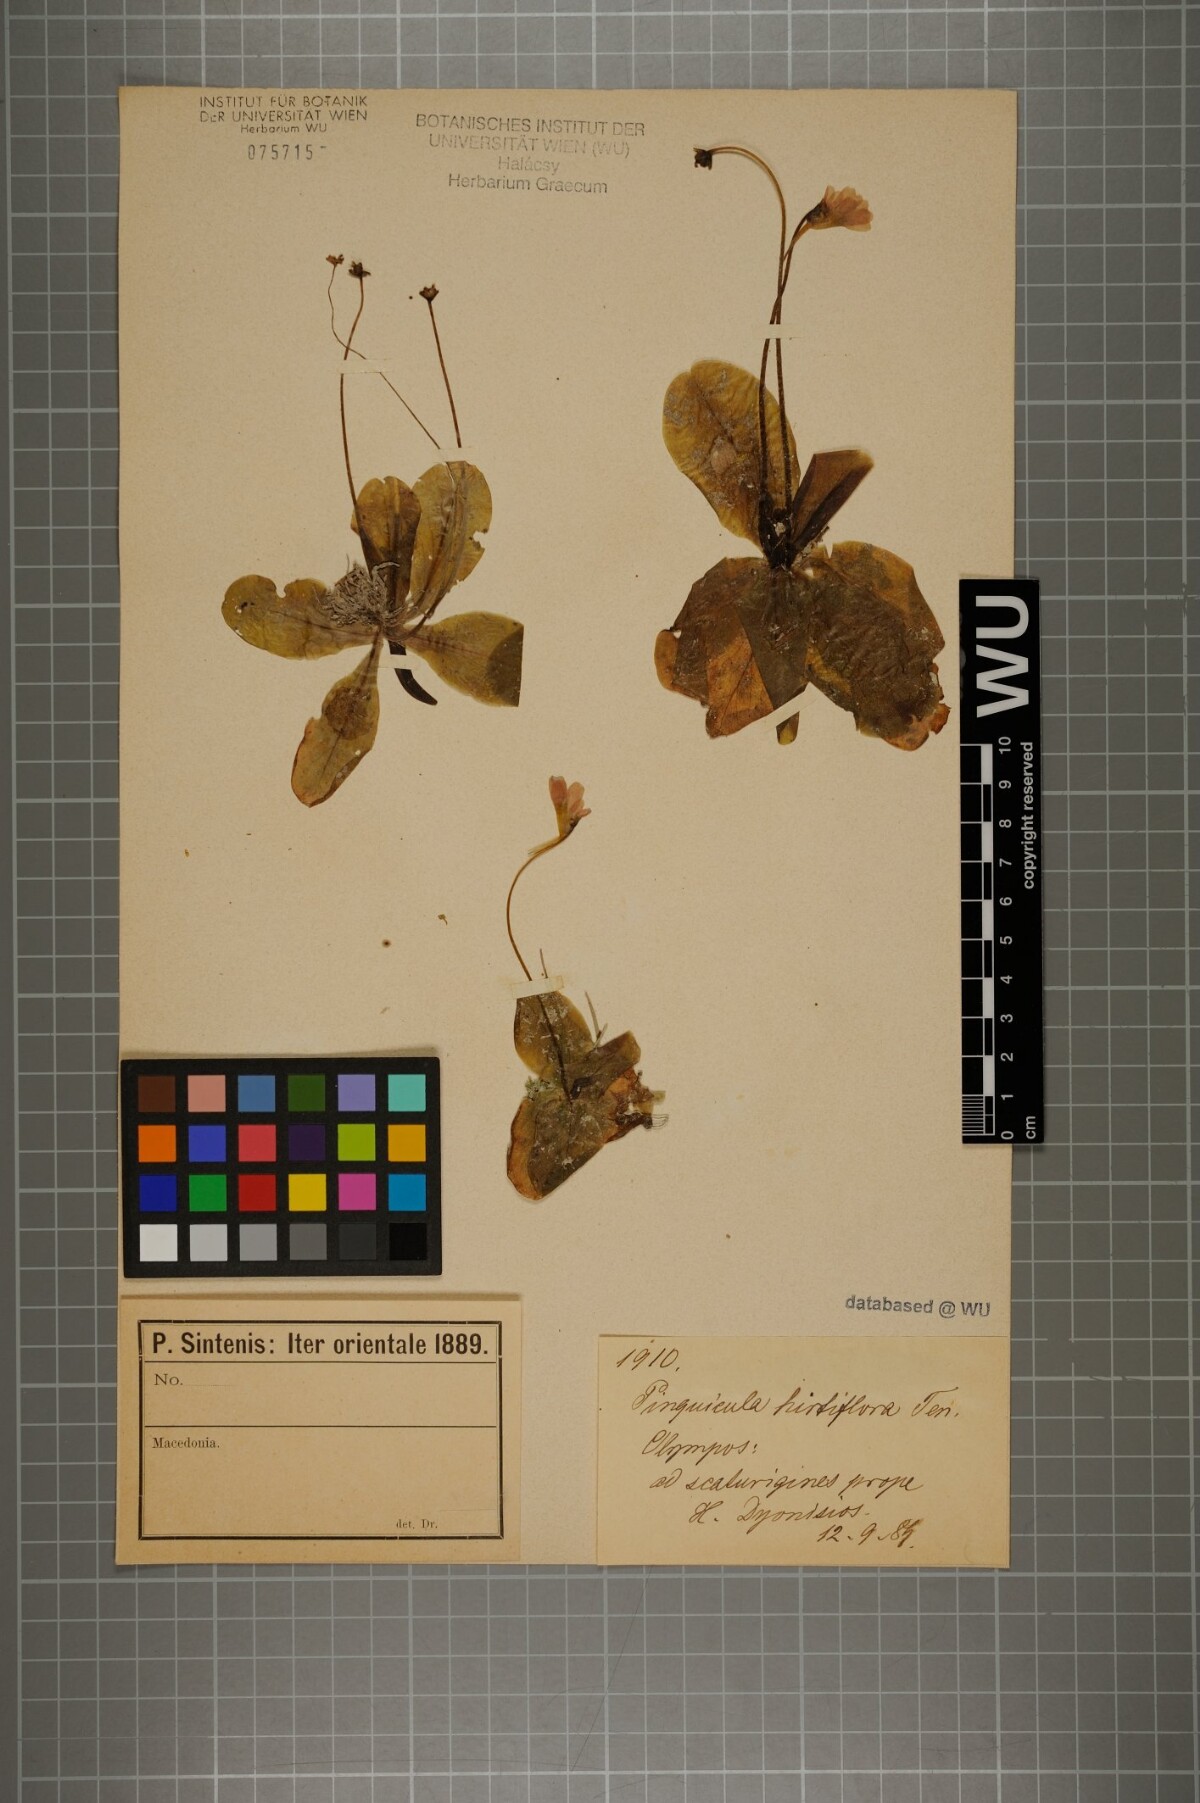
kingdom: Plantae
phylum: Tracheophyta
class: Magnoliopsida
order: Lamiales
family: Lentibulariaceae
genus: Pinguicula
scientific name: Pinguicula crystallina
